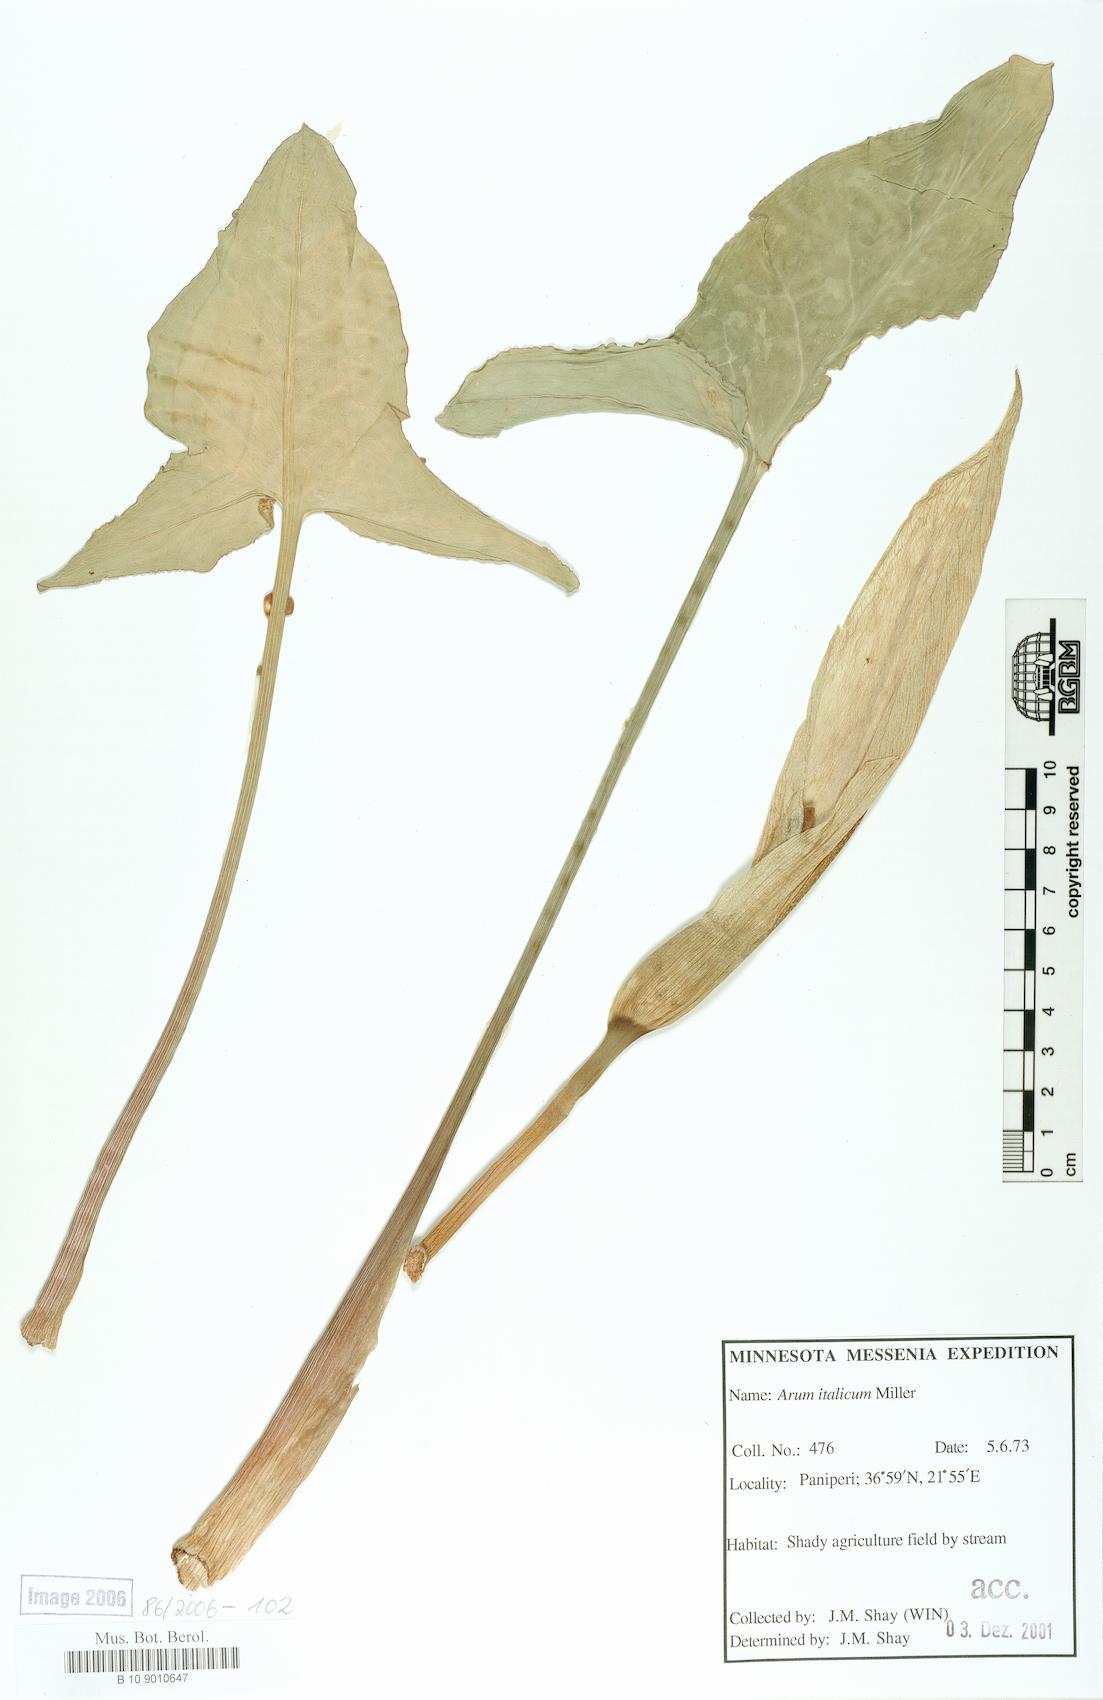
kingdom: Plantae
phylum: Tracheophyta
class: Liliopsida
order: Alismatales
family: Araceae
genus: Arum
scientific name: Arum italicum
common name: Italian lords-and-ladies
